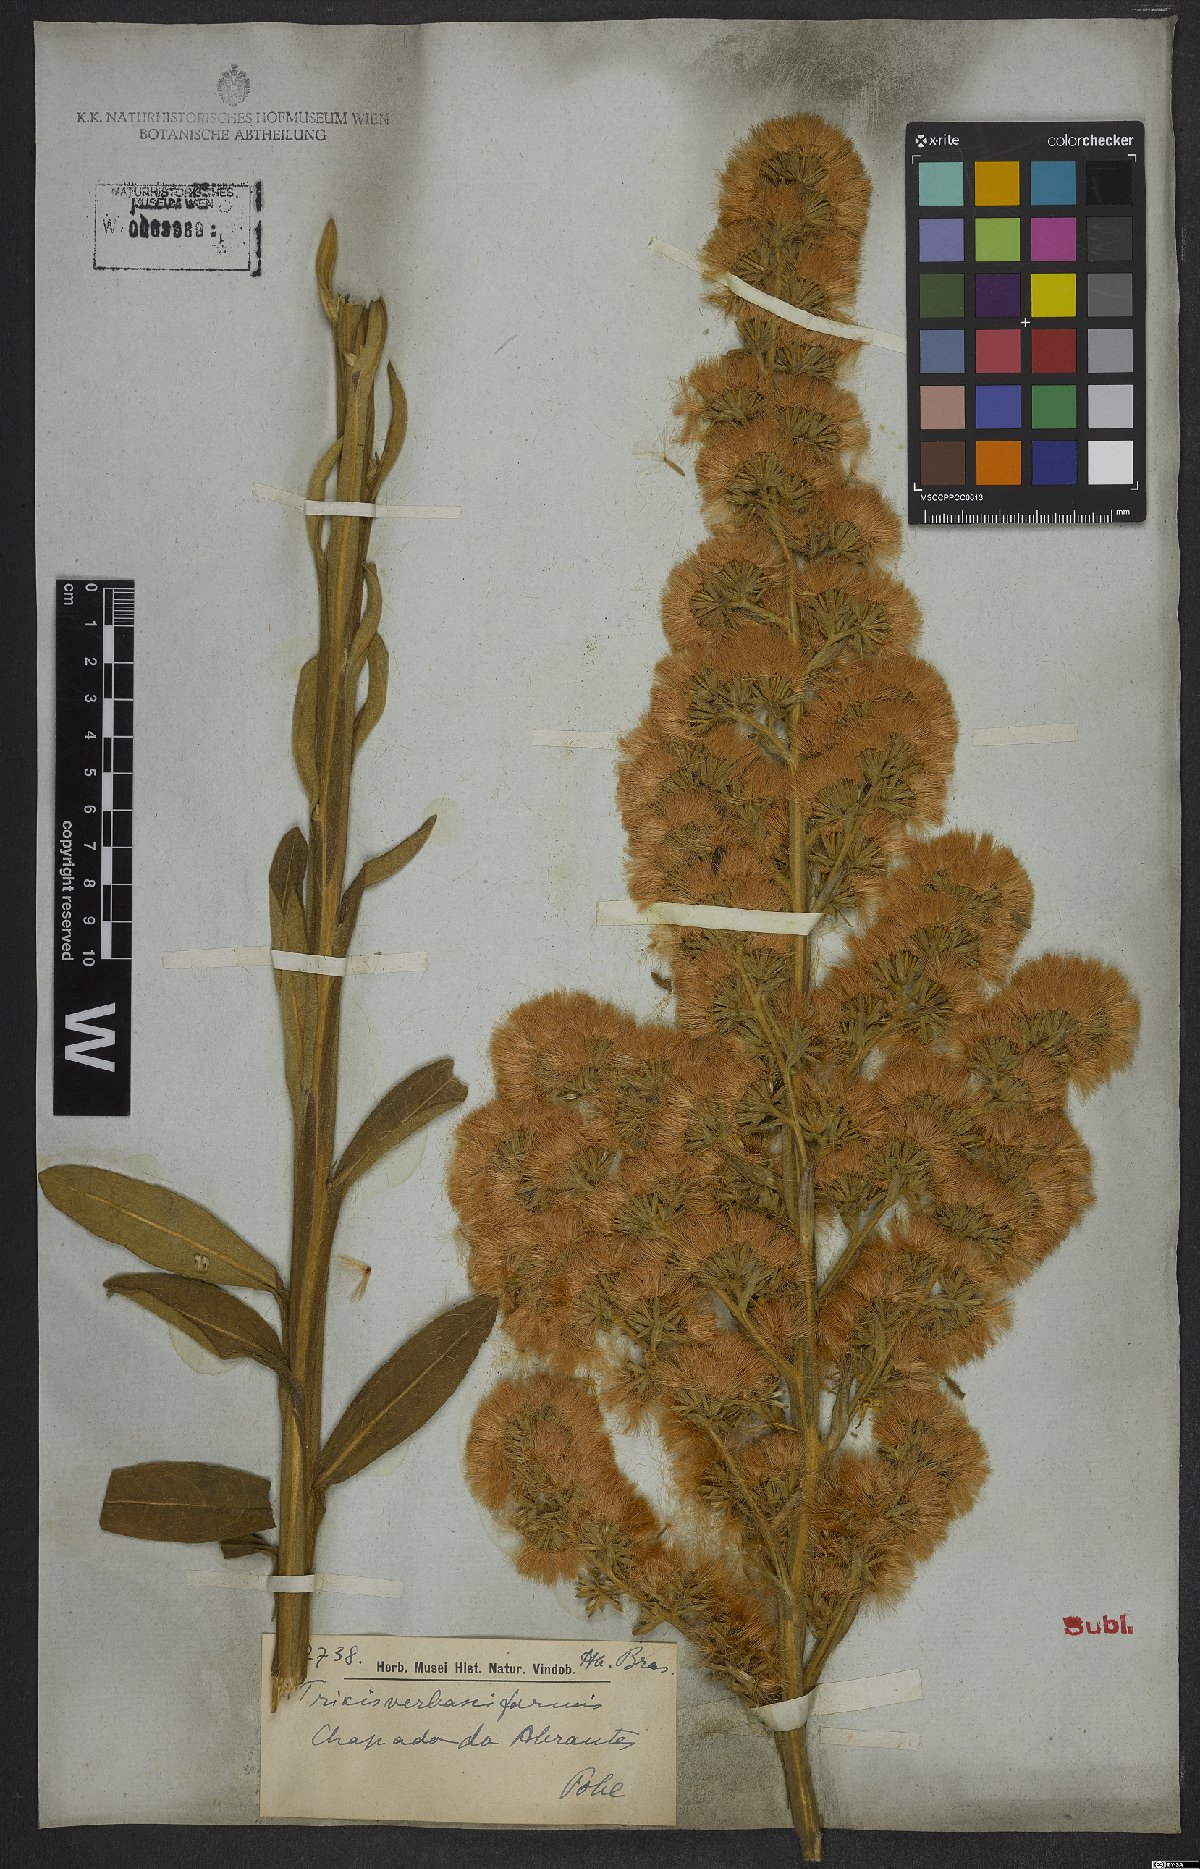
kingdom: Plantae
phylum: Tracheophyta
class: Magnoliopsida
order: Asterales
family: Asteraceae
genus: Trixis
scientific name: Trixis nobilis
